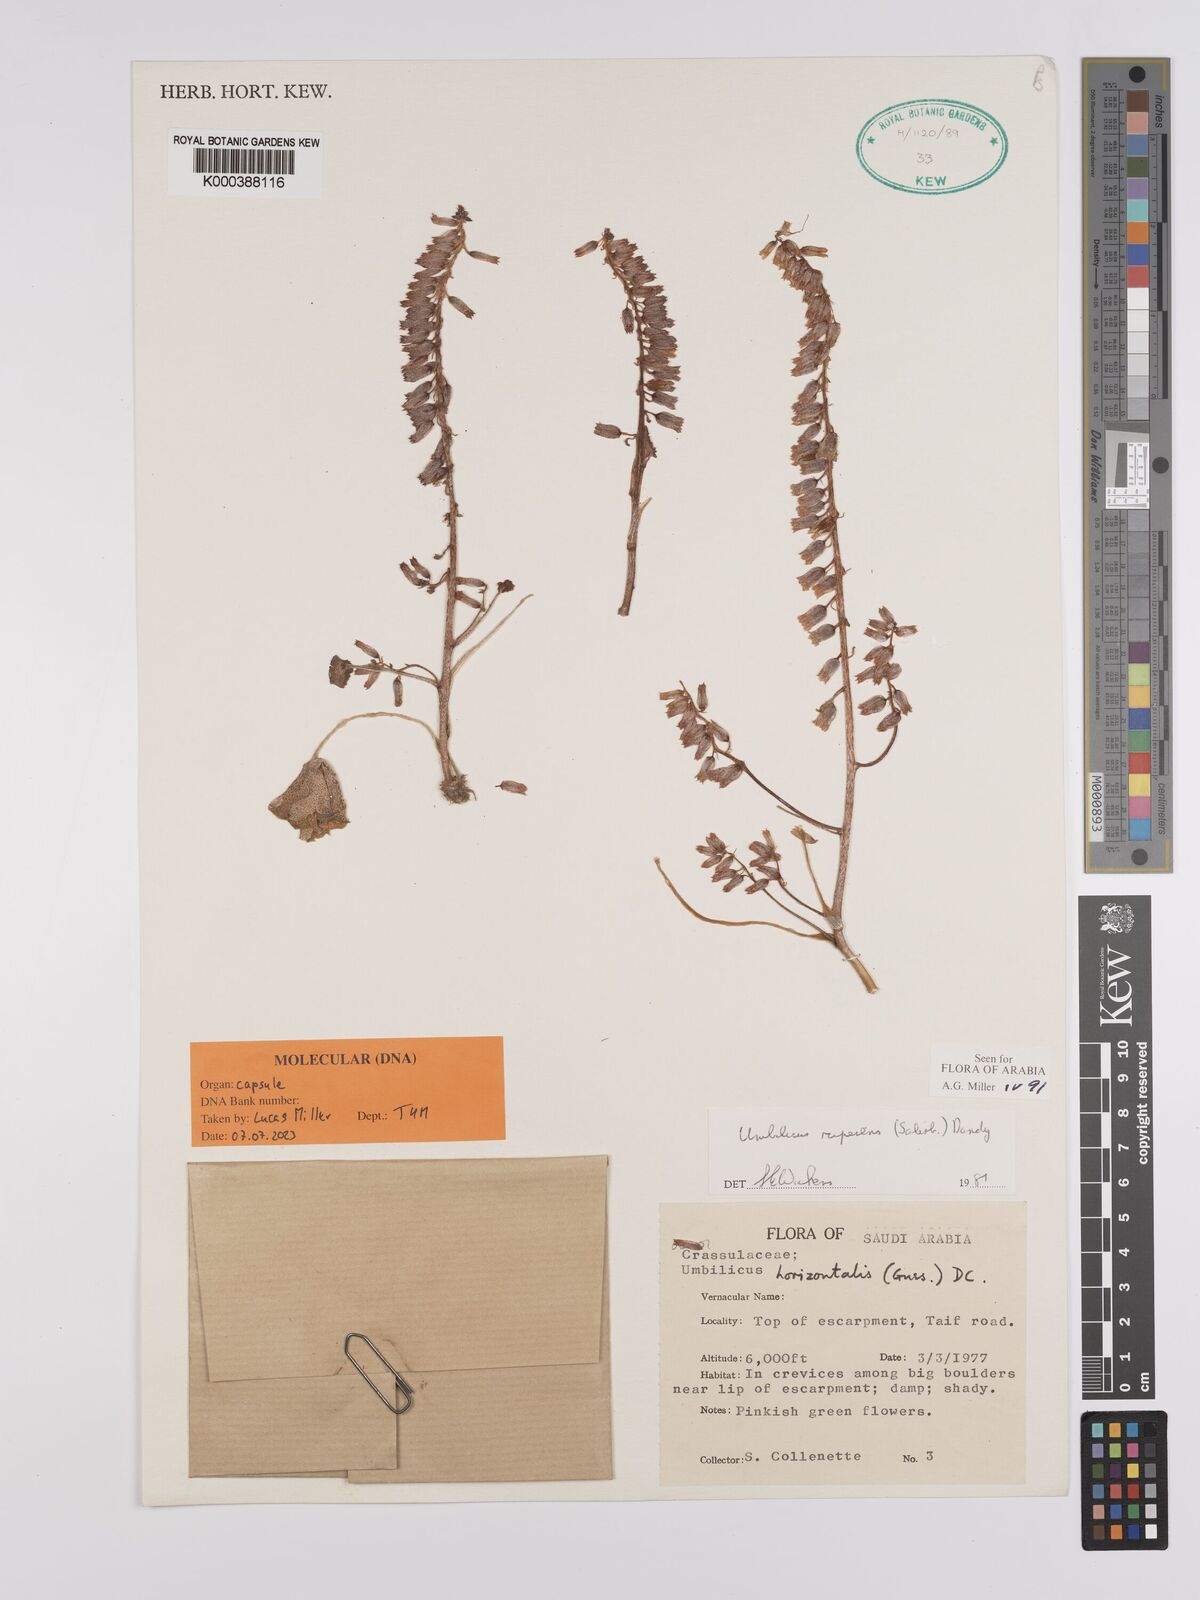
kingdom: Plantae
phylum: Tracheophyta
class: Magnoliopsida
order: Saxifragales
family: Crassulaceae
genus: Umbilicus
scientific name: Umbilicus rupestris
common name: Navelwort
